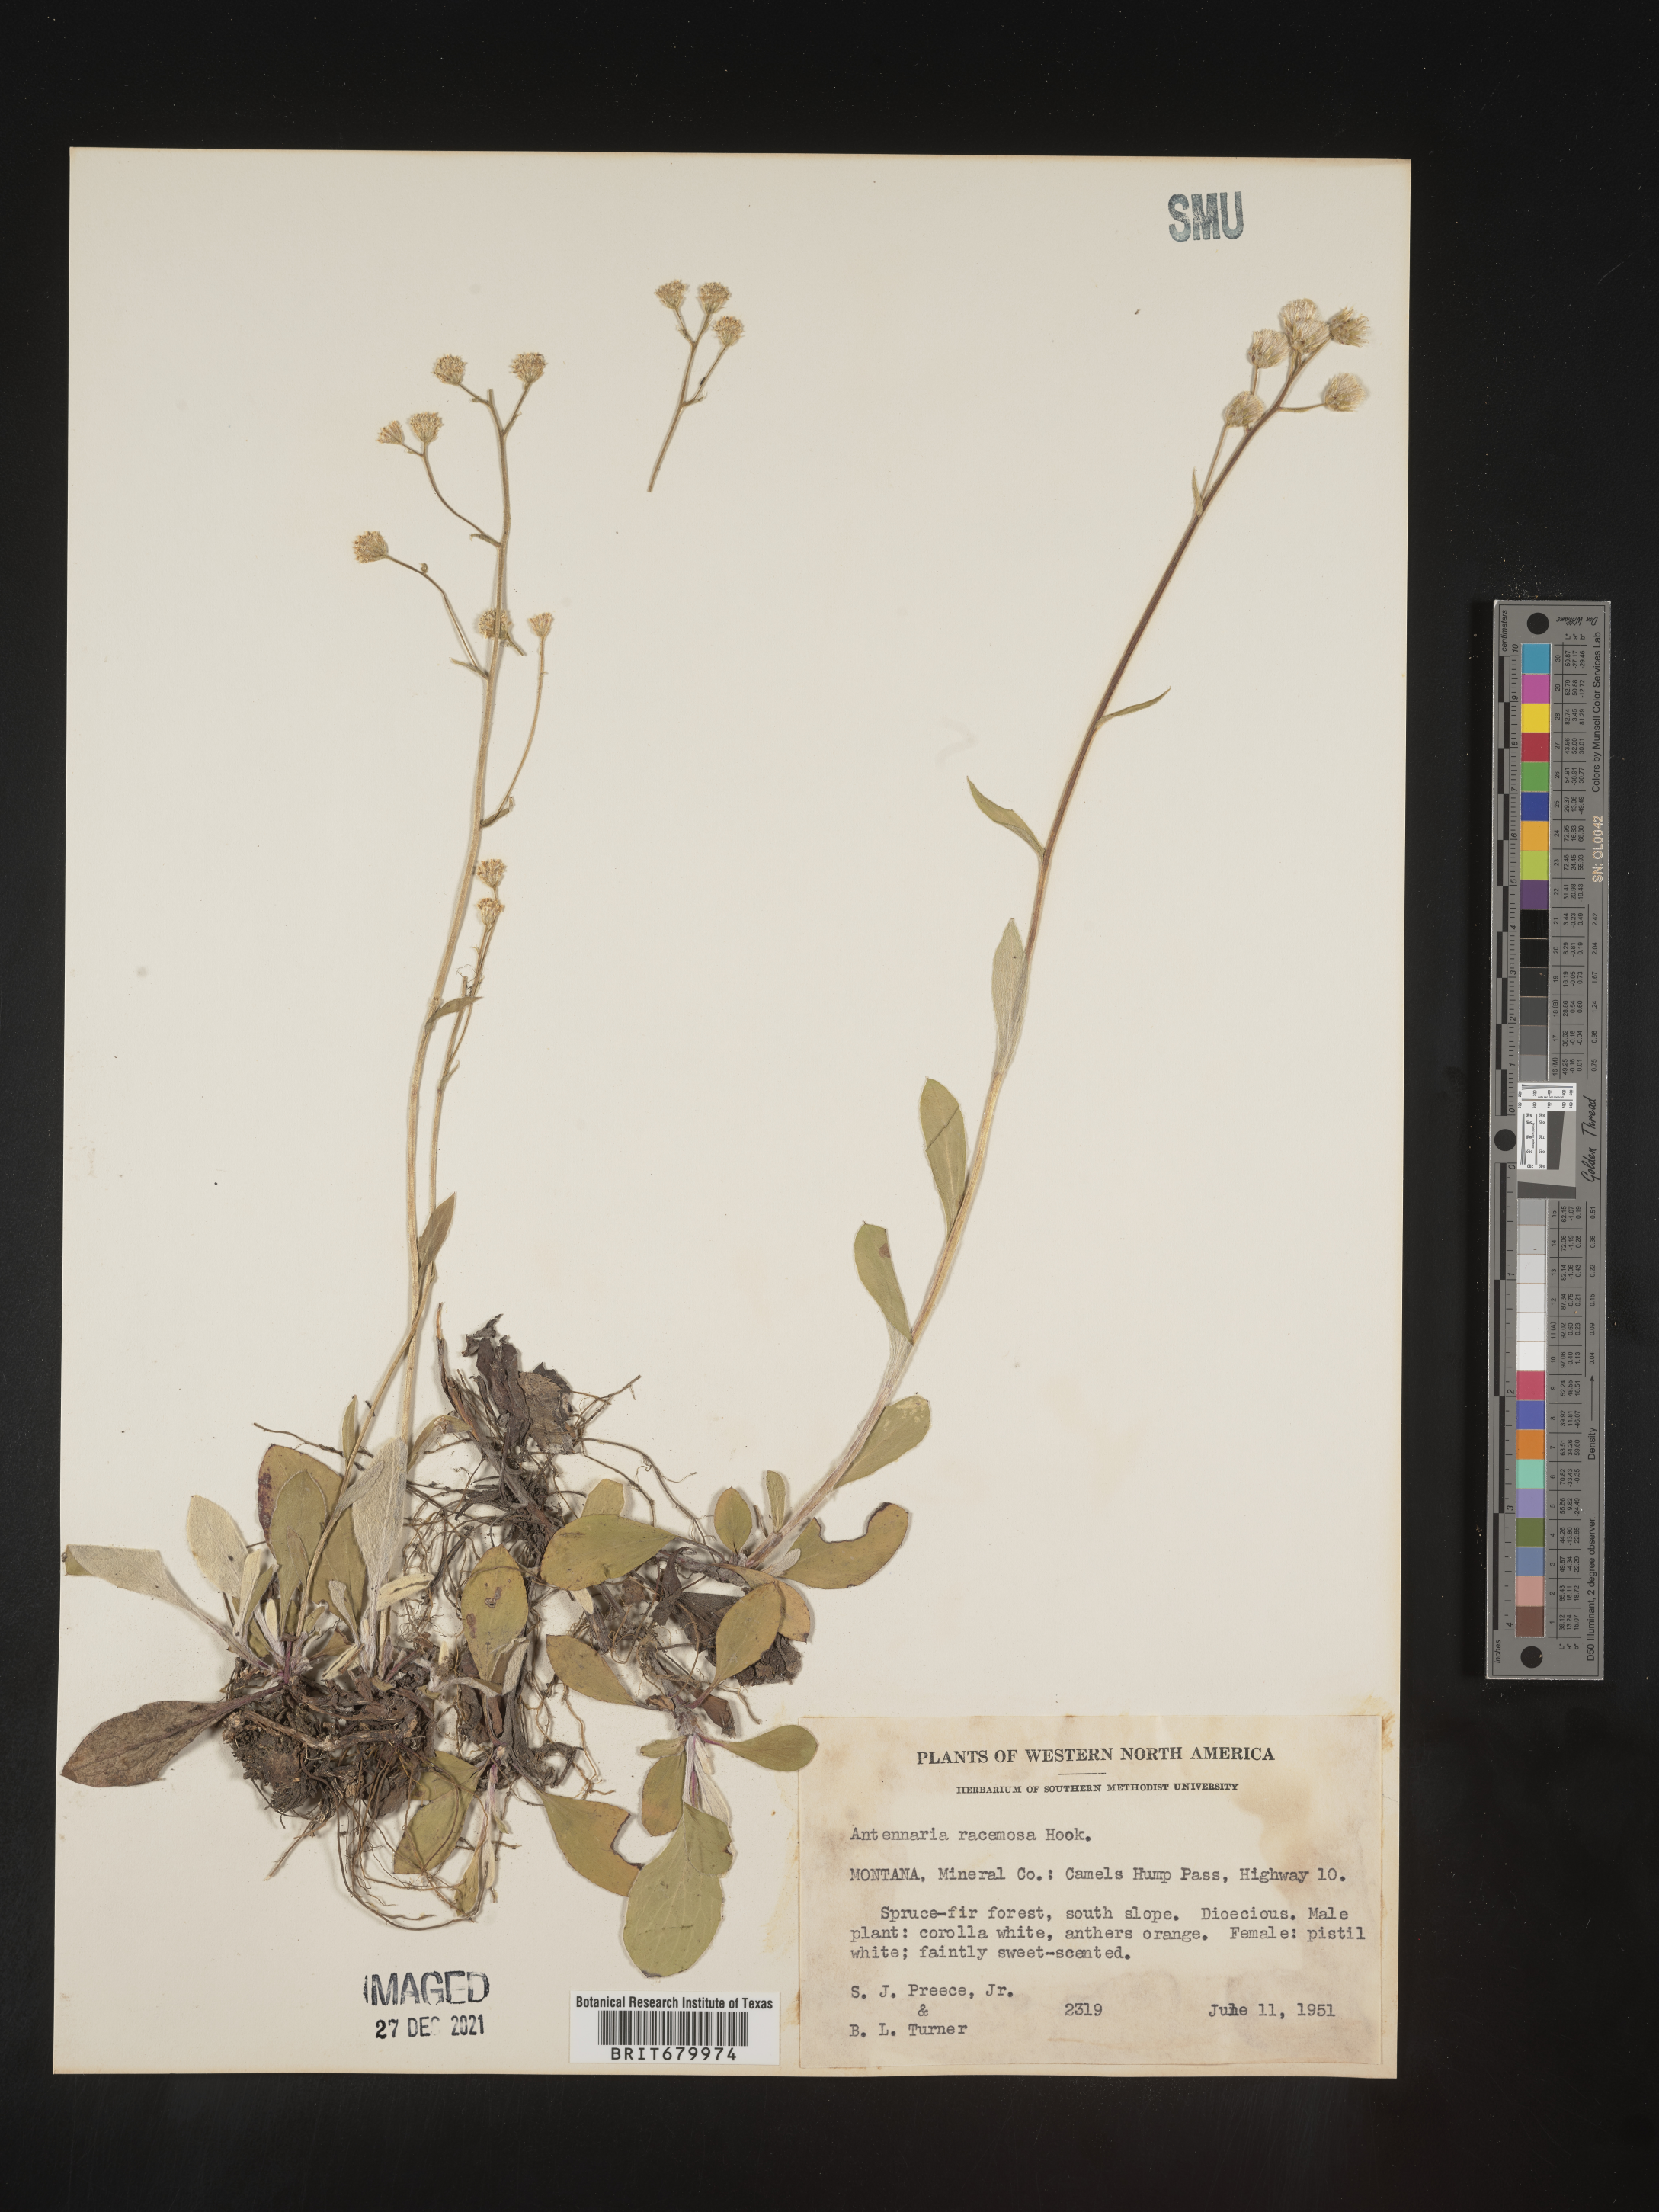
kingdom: Plantae
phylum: Tracheophyta
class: Magnoliopsida
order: Asterales
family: Asteraceae
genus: Antennaria
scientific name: Antennaria racemosa
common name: Racemose pussytoes
